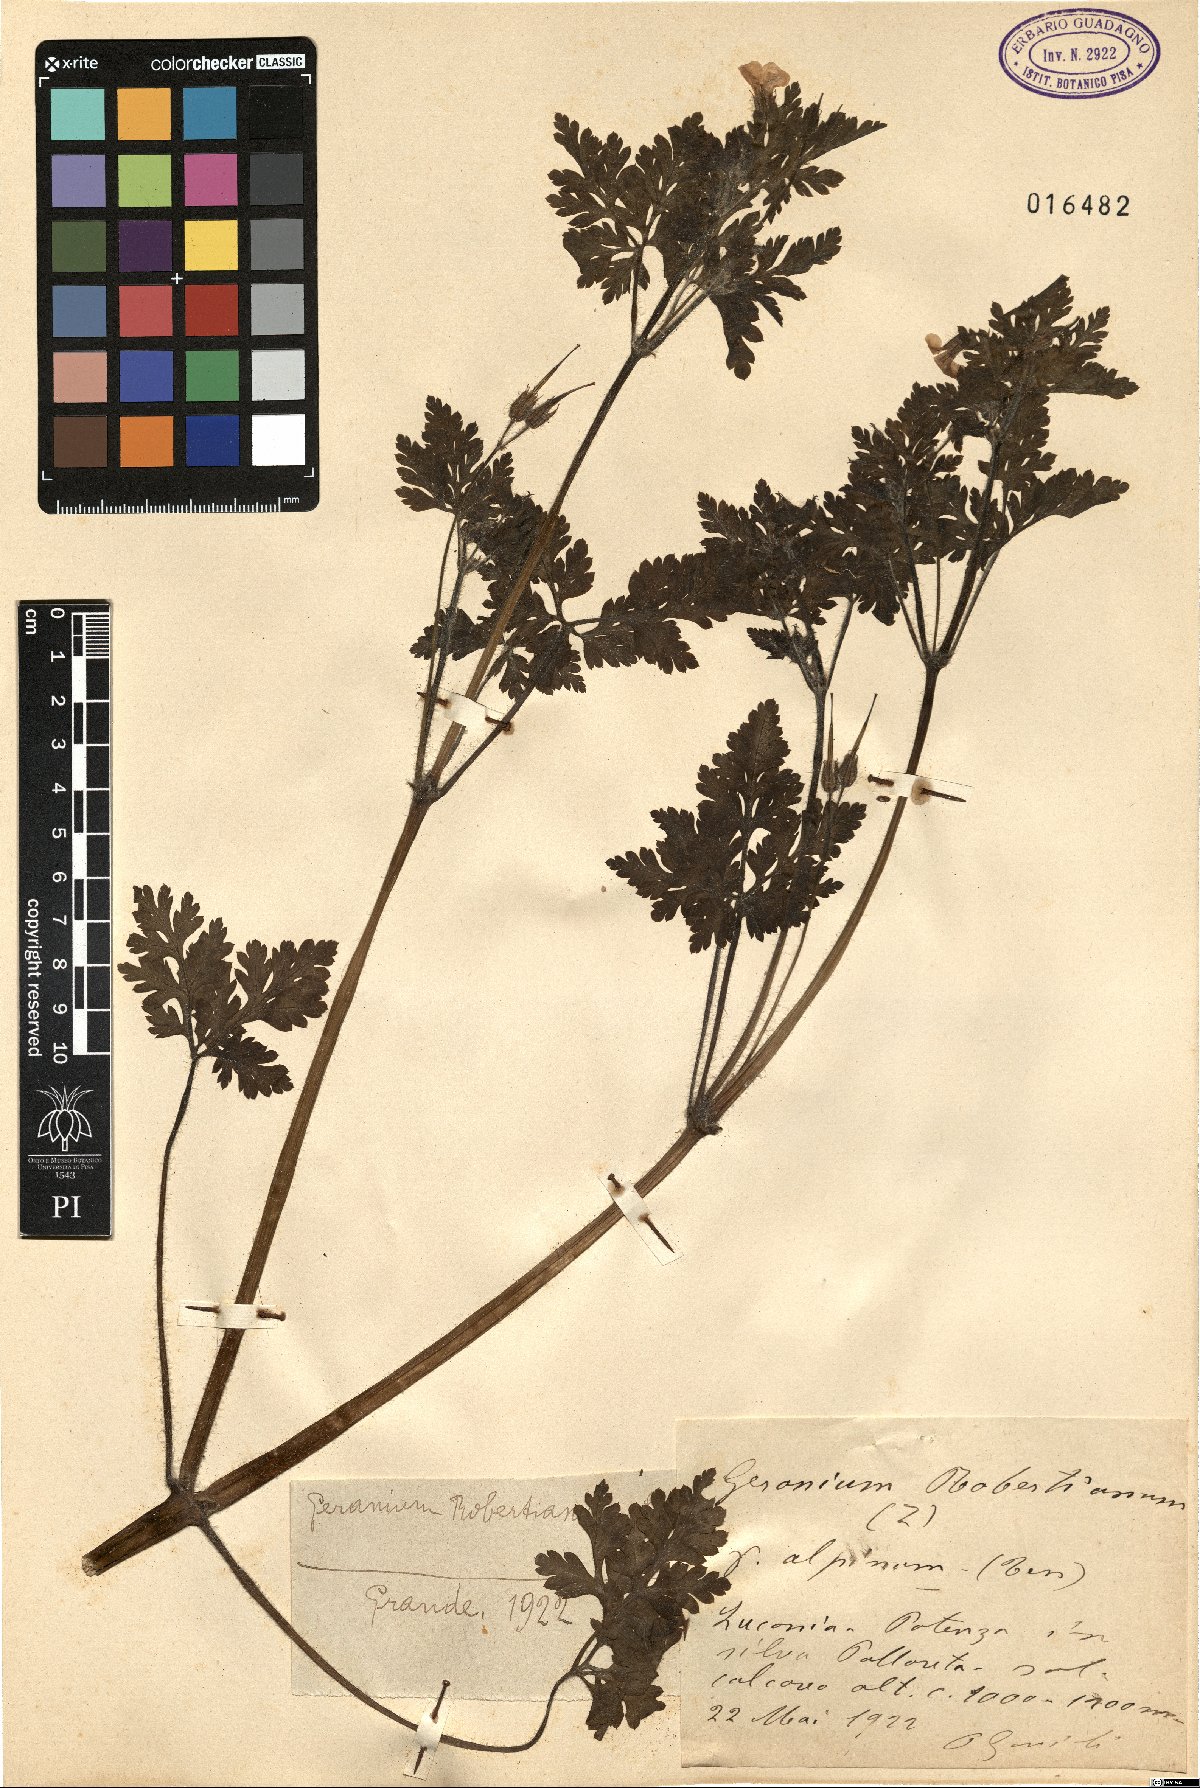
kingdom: Plantae
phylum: Tracheophyta
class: Magnoliopsida
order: Geraniales
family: Geraniaceae
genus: Geranium
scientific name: Geranium robertianum
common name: Herb-robert
